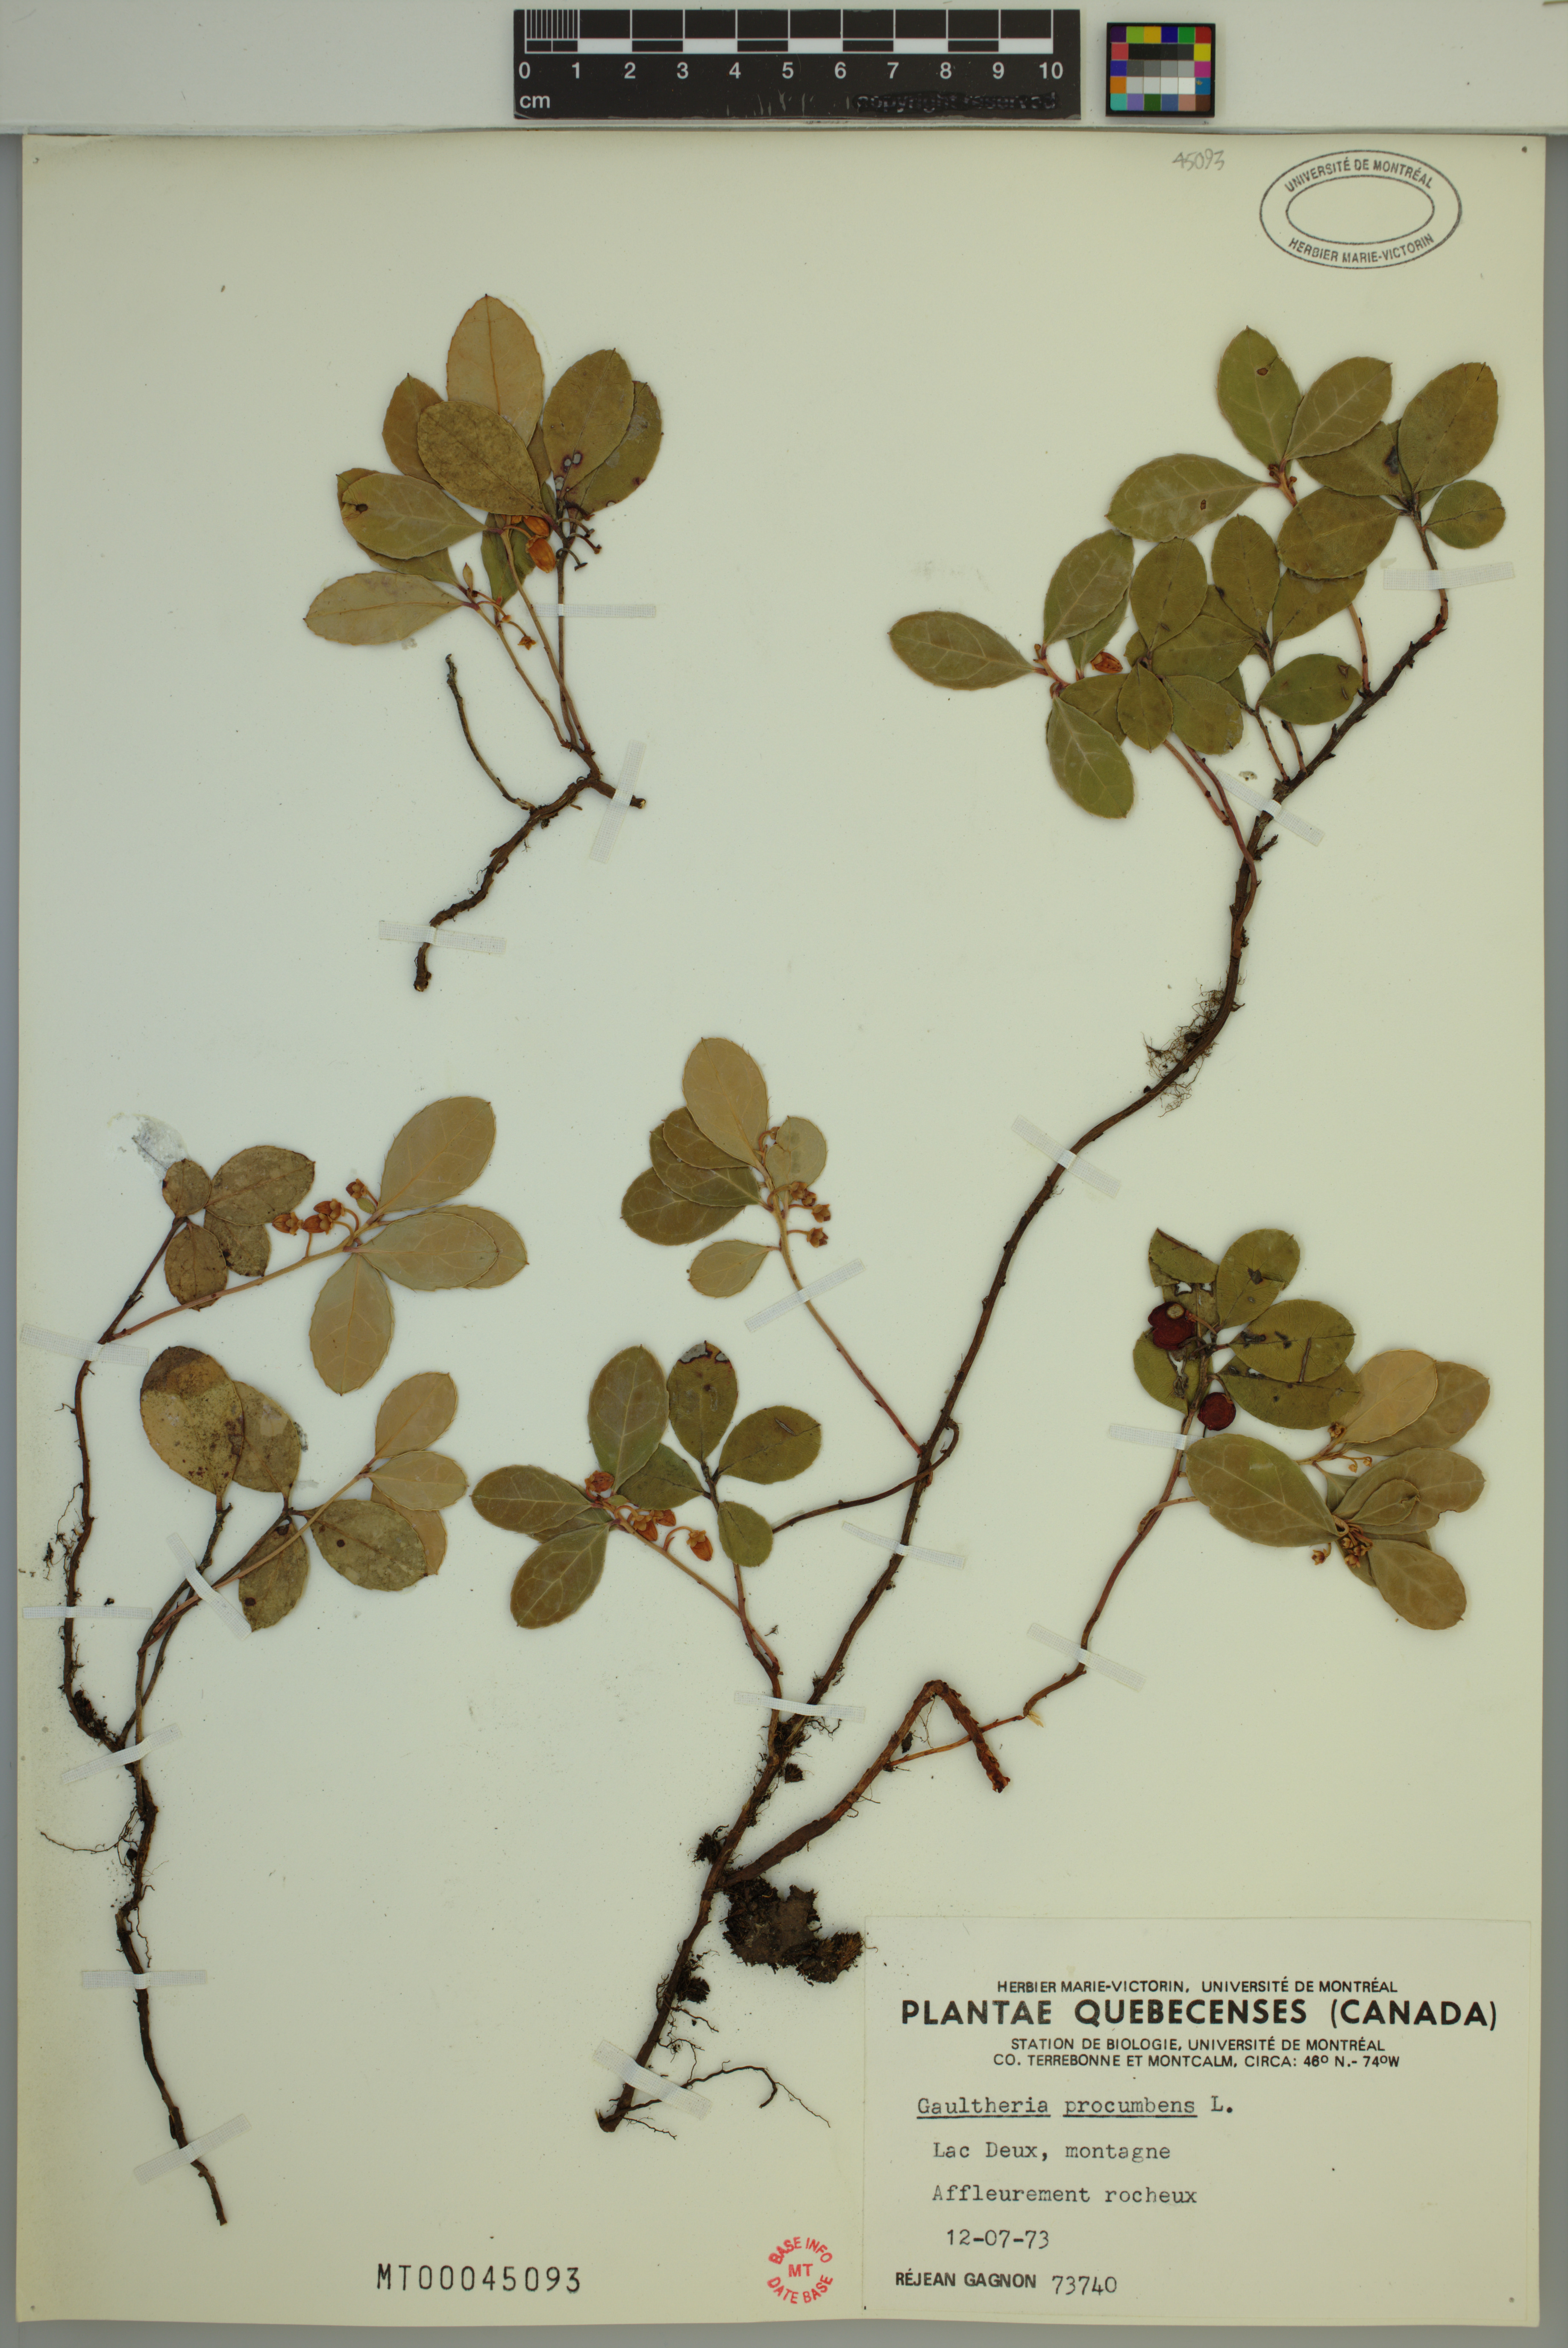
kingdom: Plantae
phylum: Tracheophyta
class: Magnoliopsida
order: Ericales
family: Ericaceae
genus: Gaultheria
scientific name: Gaultheria procumbens
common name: Checkerberry
